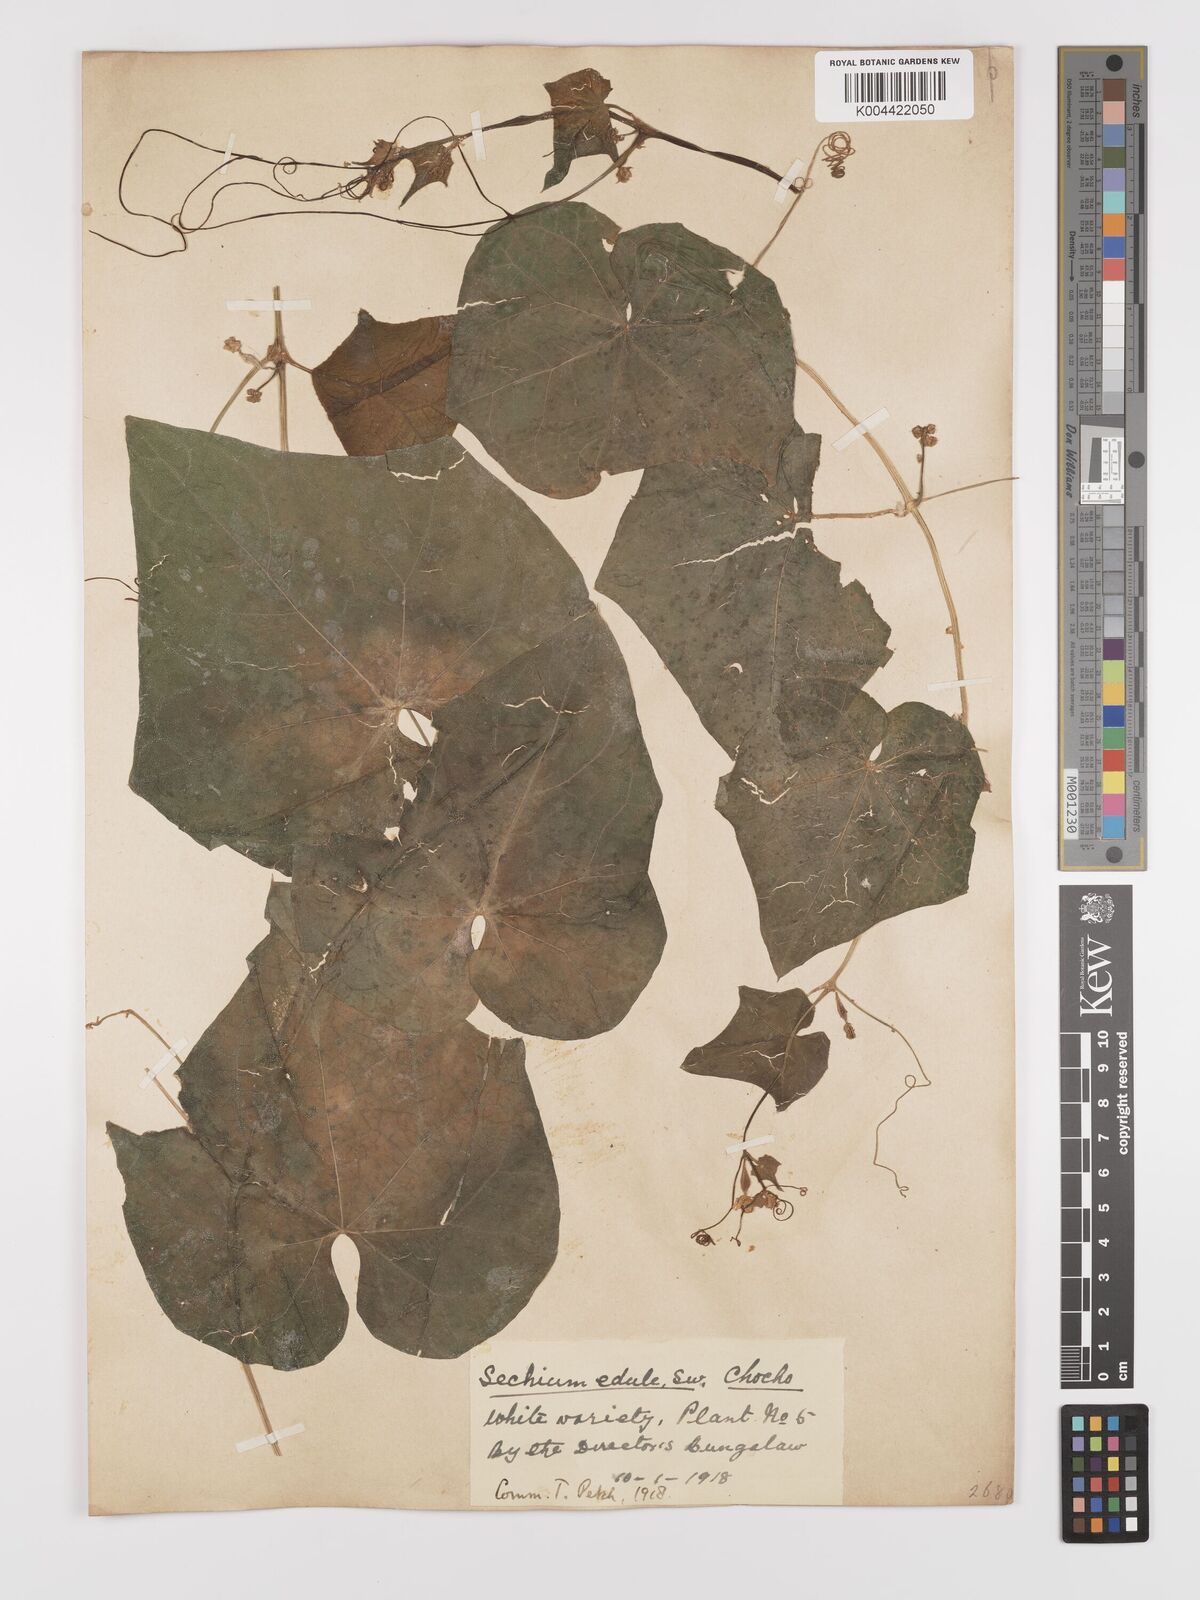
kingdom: Plantae
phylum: Tracheophyta
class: Magnoliopsida
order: Cucurbitales
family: Cucurbitaceae
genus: Sechium
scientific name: Sechium edule
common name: Chayote
